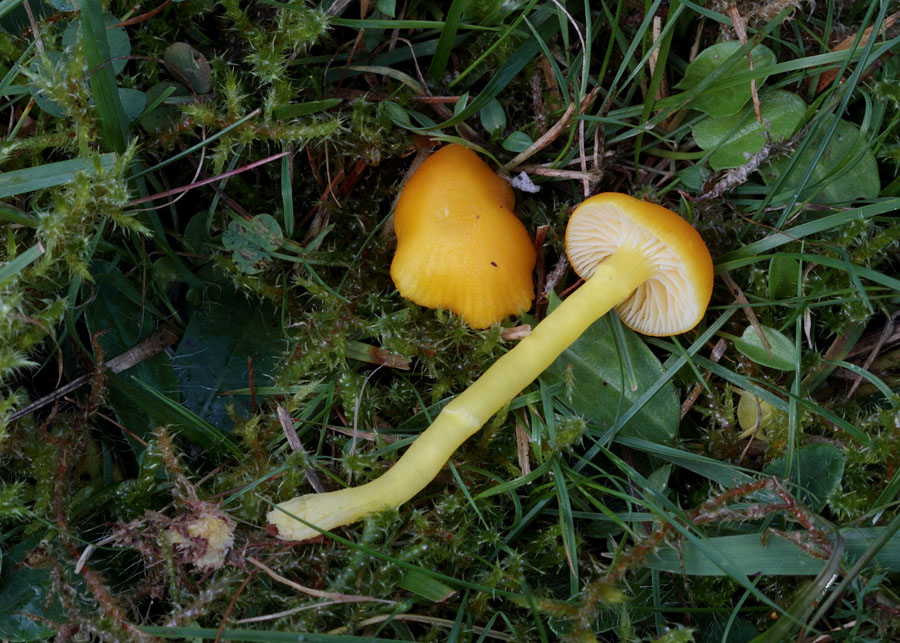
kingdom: Fungi
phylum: Basidiomycota
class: Agaricomycetes
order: Agaricales
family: Hygrophoraceae
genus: Hygrocybe
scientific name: Hygrocybe ceracea
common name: voksgul vokshat
